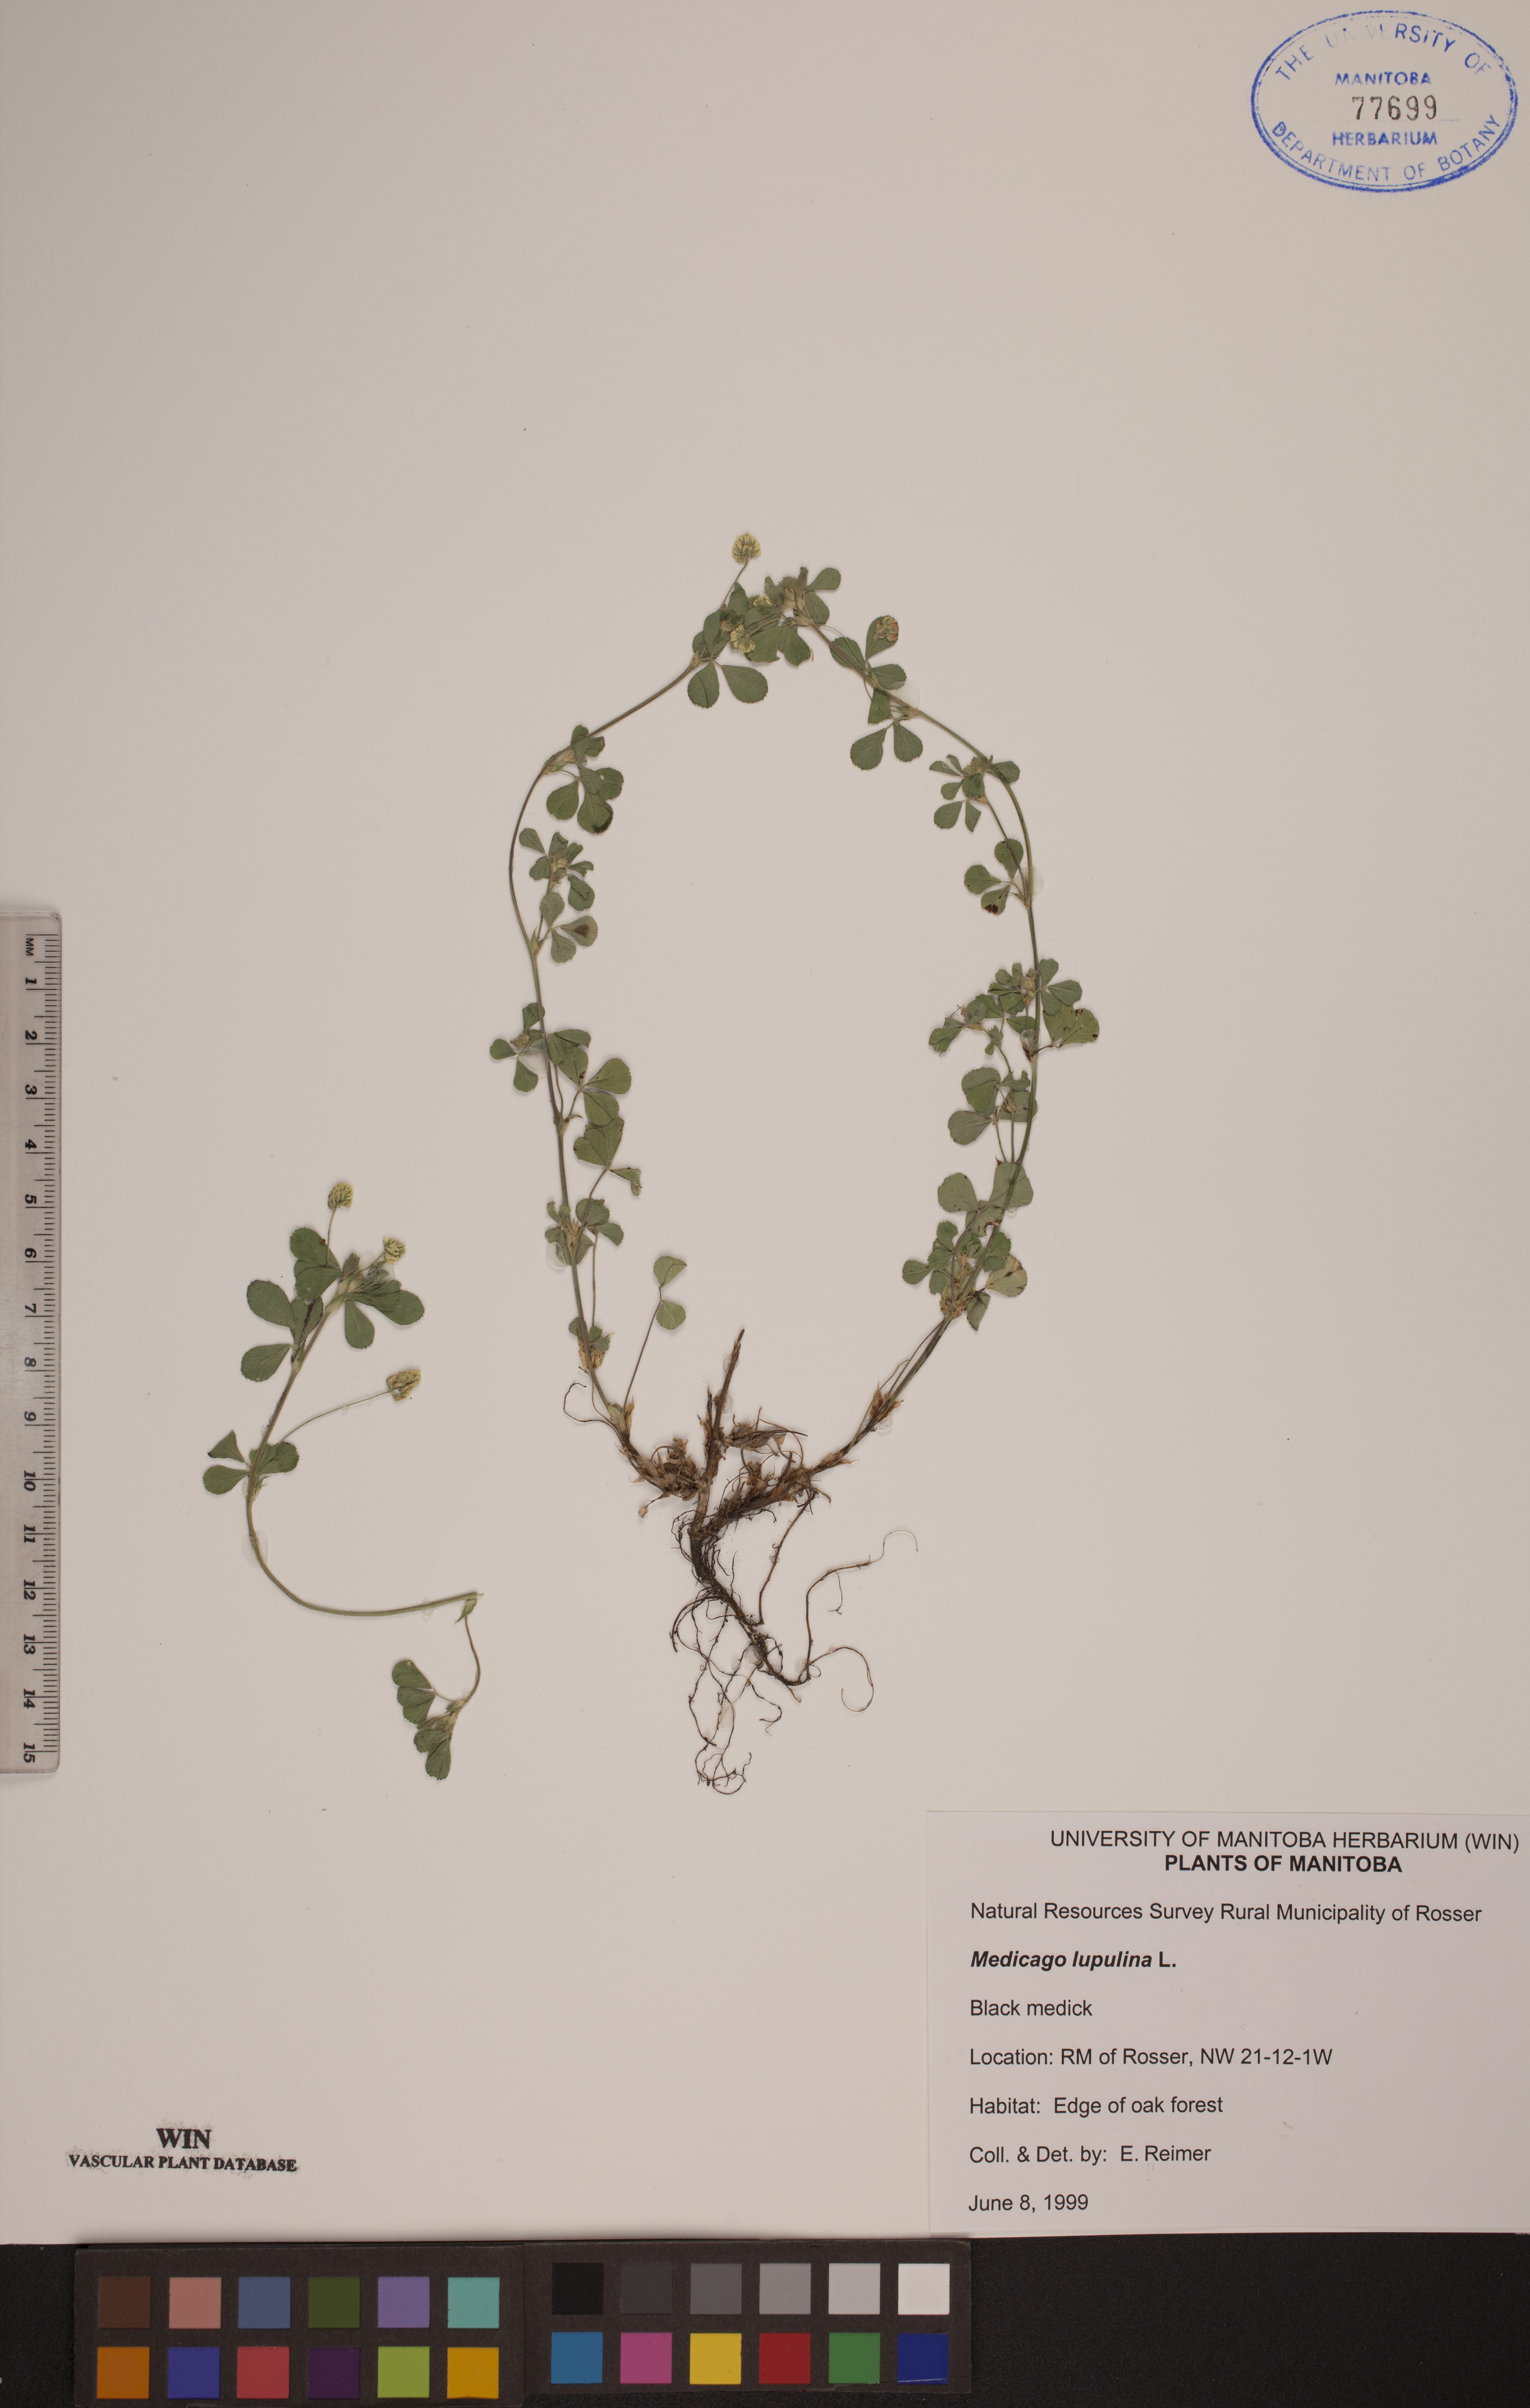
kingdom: Plantae
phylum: Tracheophyta
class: Magnoliopsida
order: Fabales
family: Fabaceae
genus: Medicago
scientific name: Medicago lupulina
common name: Black medick
